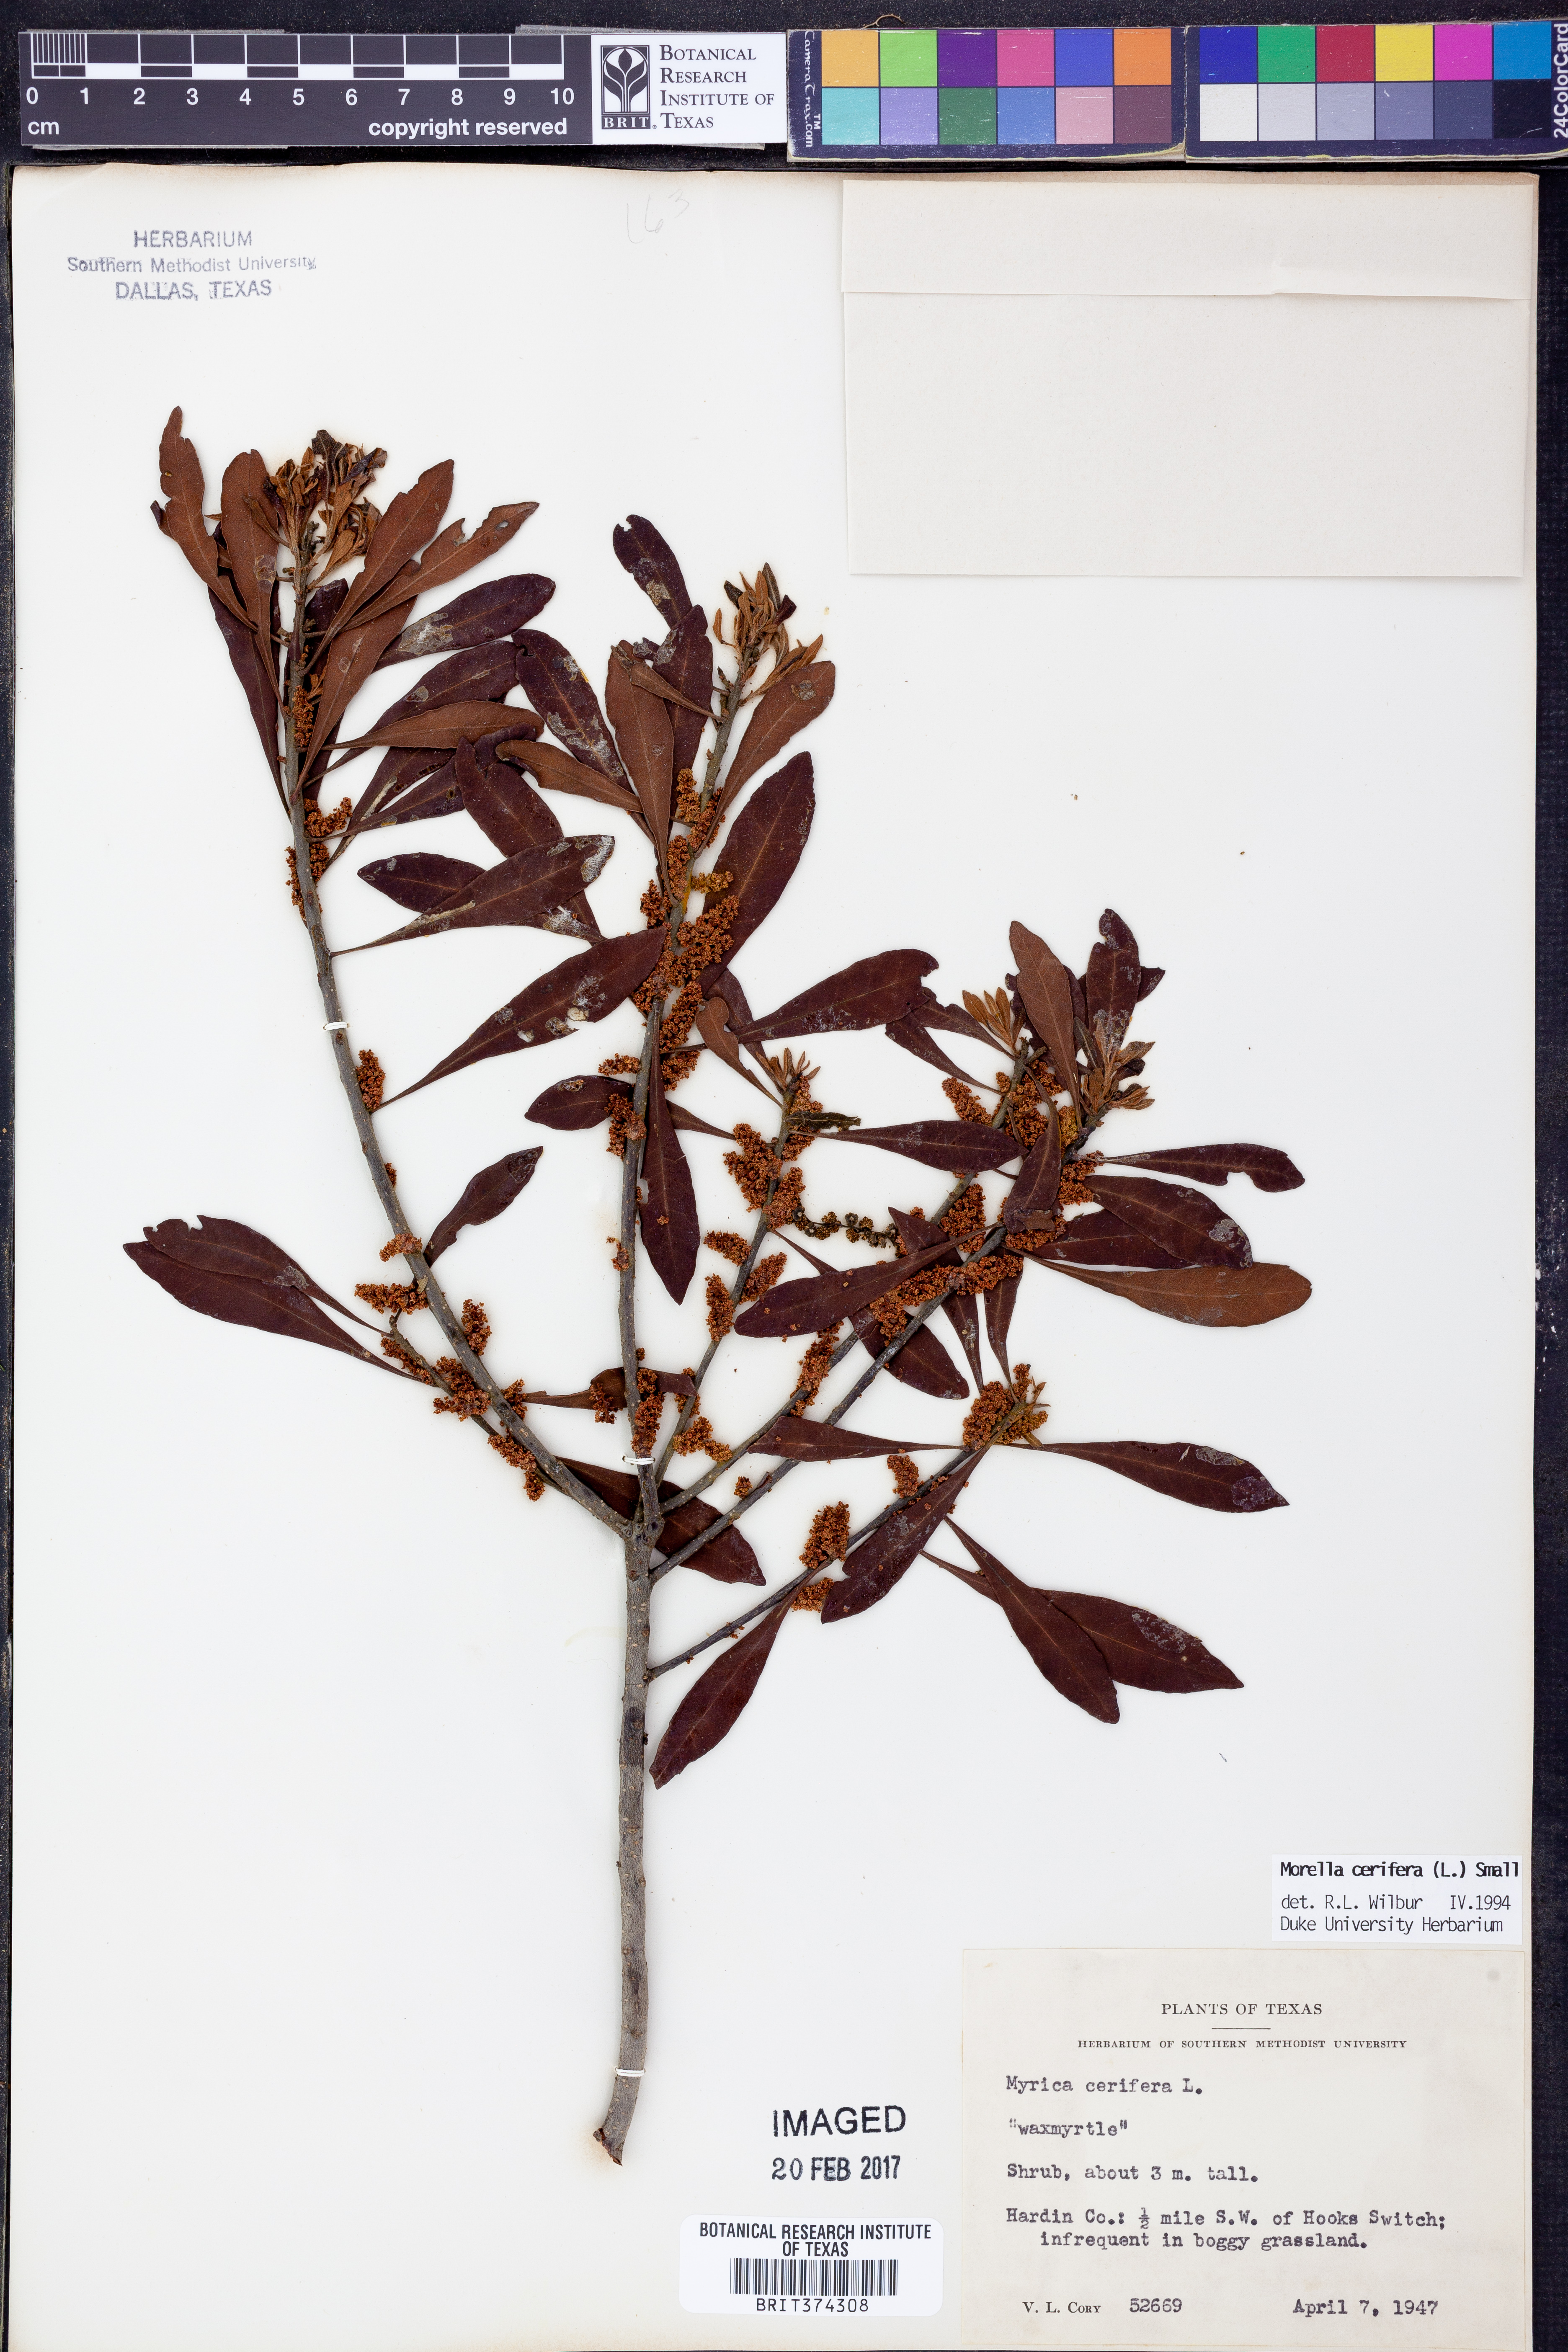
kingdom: Plantae
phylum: Tracheophyta
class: Magnoliopsida
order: Fagales
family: Myricaceae
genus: Morella
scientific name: Morella cerifera
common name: Wax myrtle
